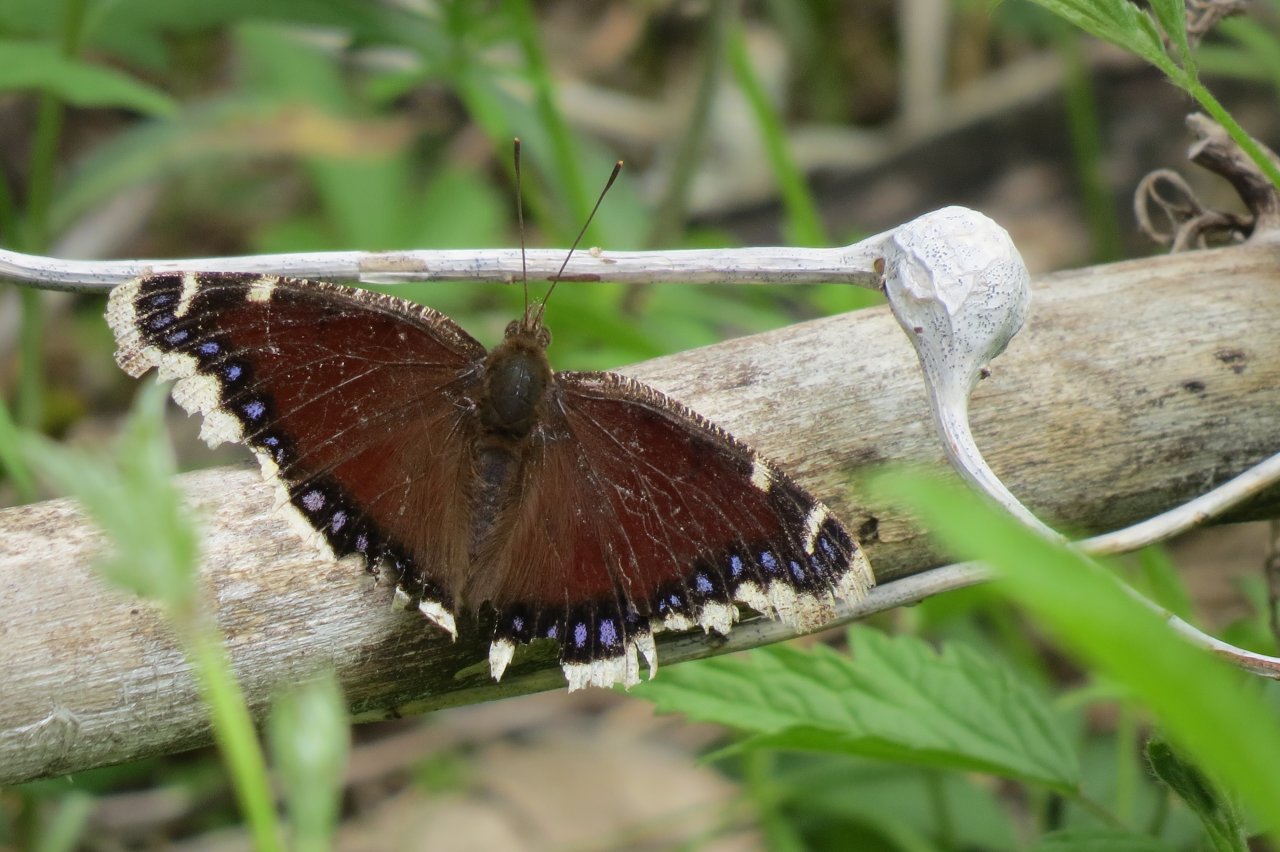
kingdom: Animalia
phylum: Arthropoda
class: Insecta
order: Lepidoptera
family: Nymphalidae
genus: Nymphalis
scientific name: Nymphalis antiopa
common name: Mourning Cloak
